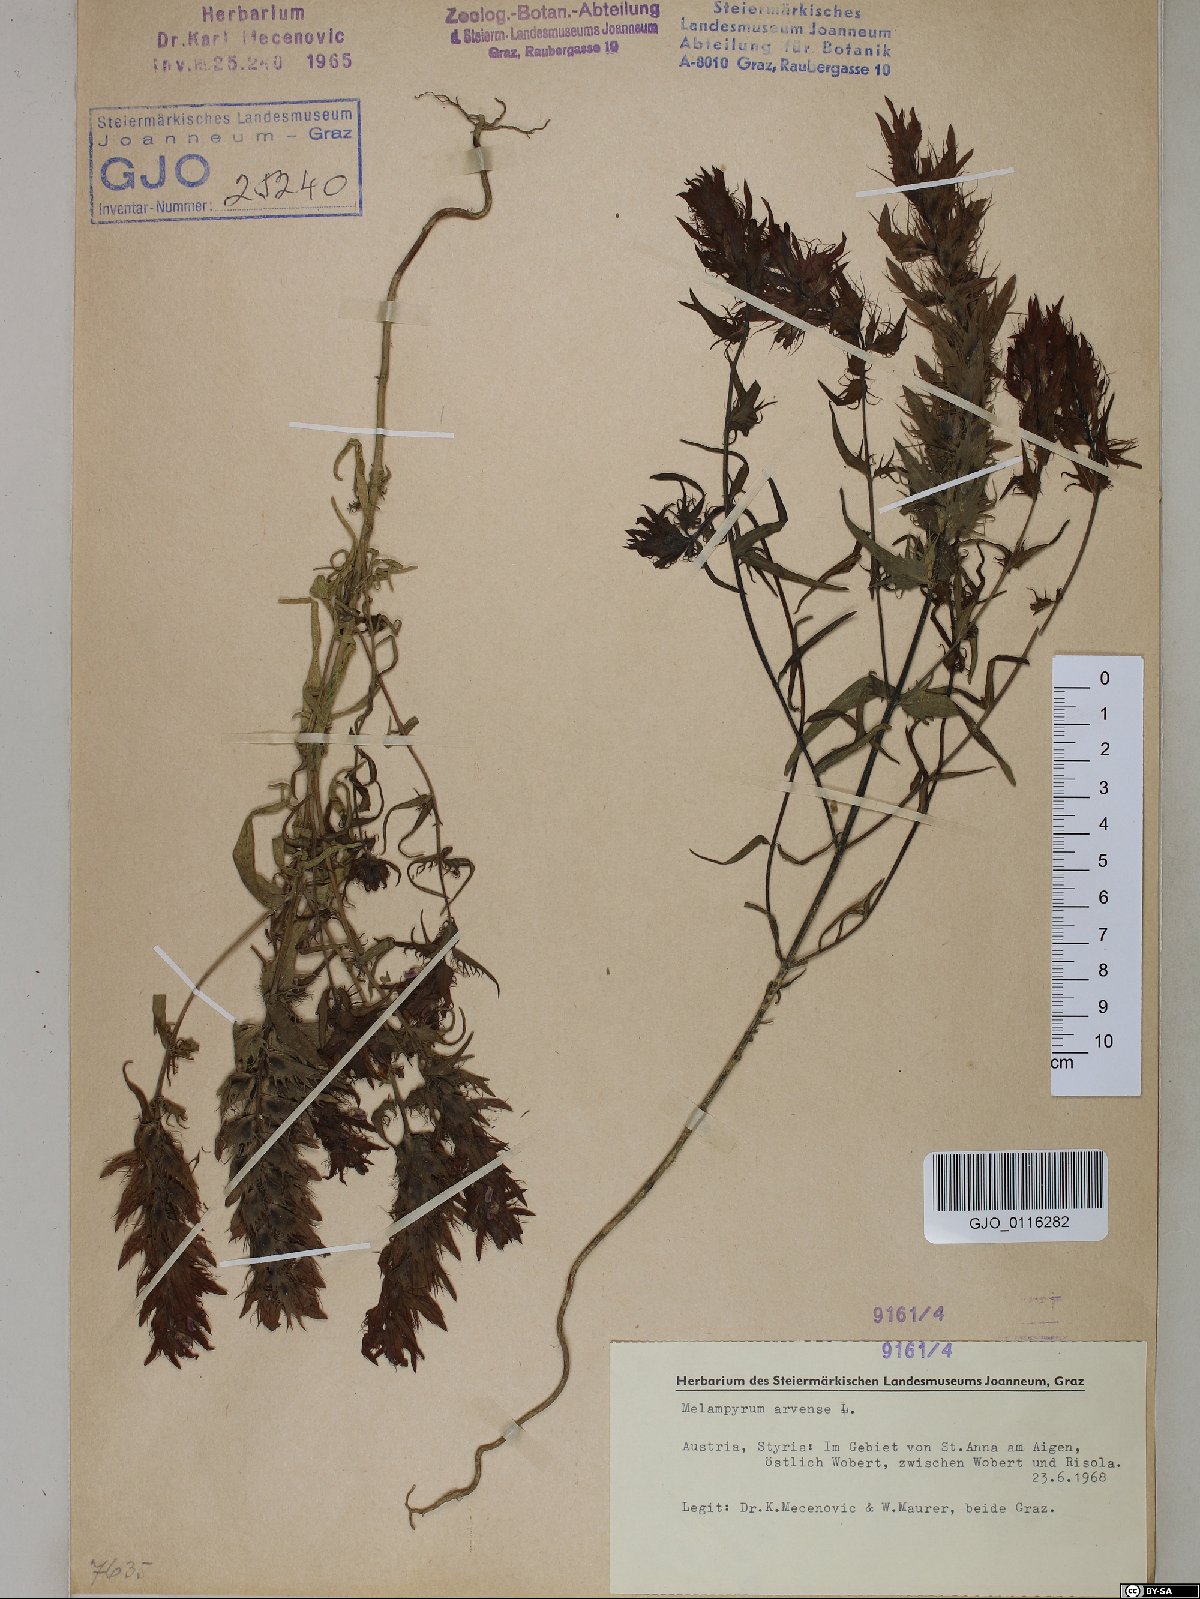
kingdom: Plantae
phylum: Tracheophyta
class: Magnoliopsida
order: Lamiales
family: Orobanchaceae
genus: Melampyrum
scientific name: Melampyrum arvense
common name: Field cow-wheat
